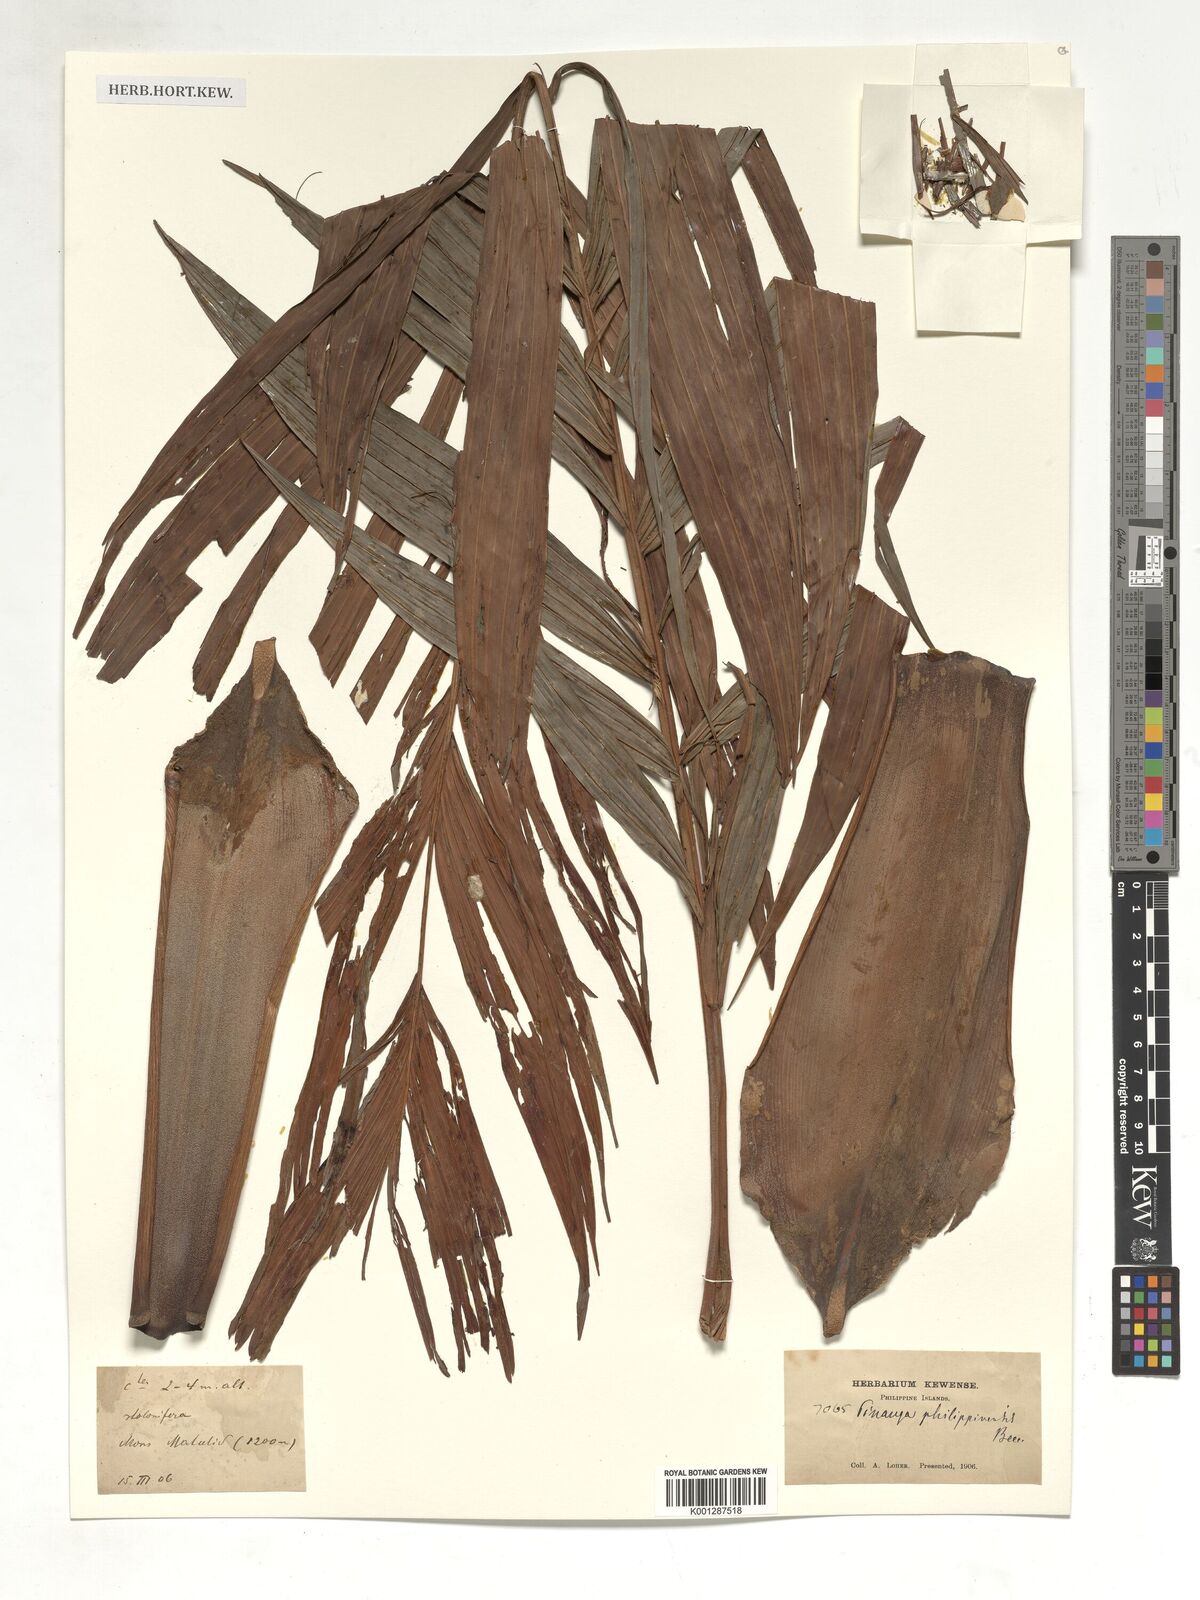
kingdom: Plantae
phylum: Tracheophyta
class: Liliopsida
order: Arecales
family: Arecaceae
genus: Pinanga
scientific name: Pinanga philippinensis
